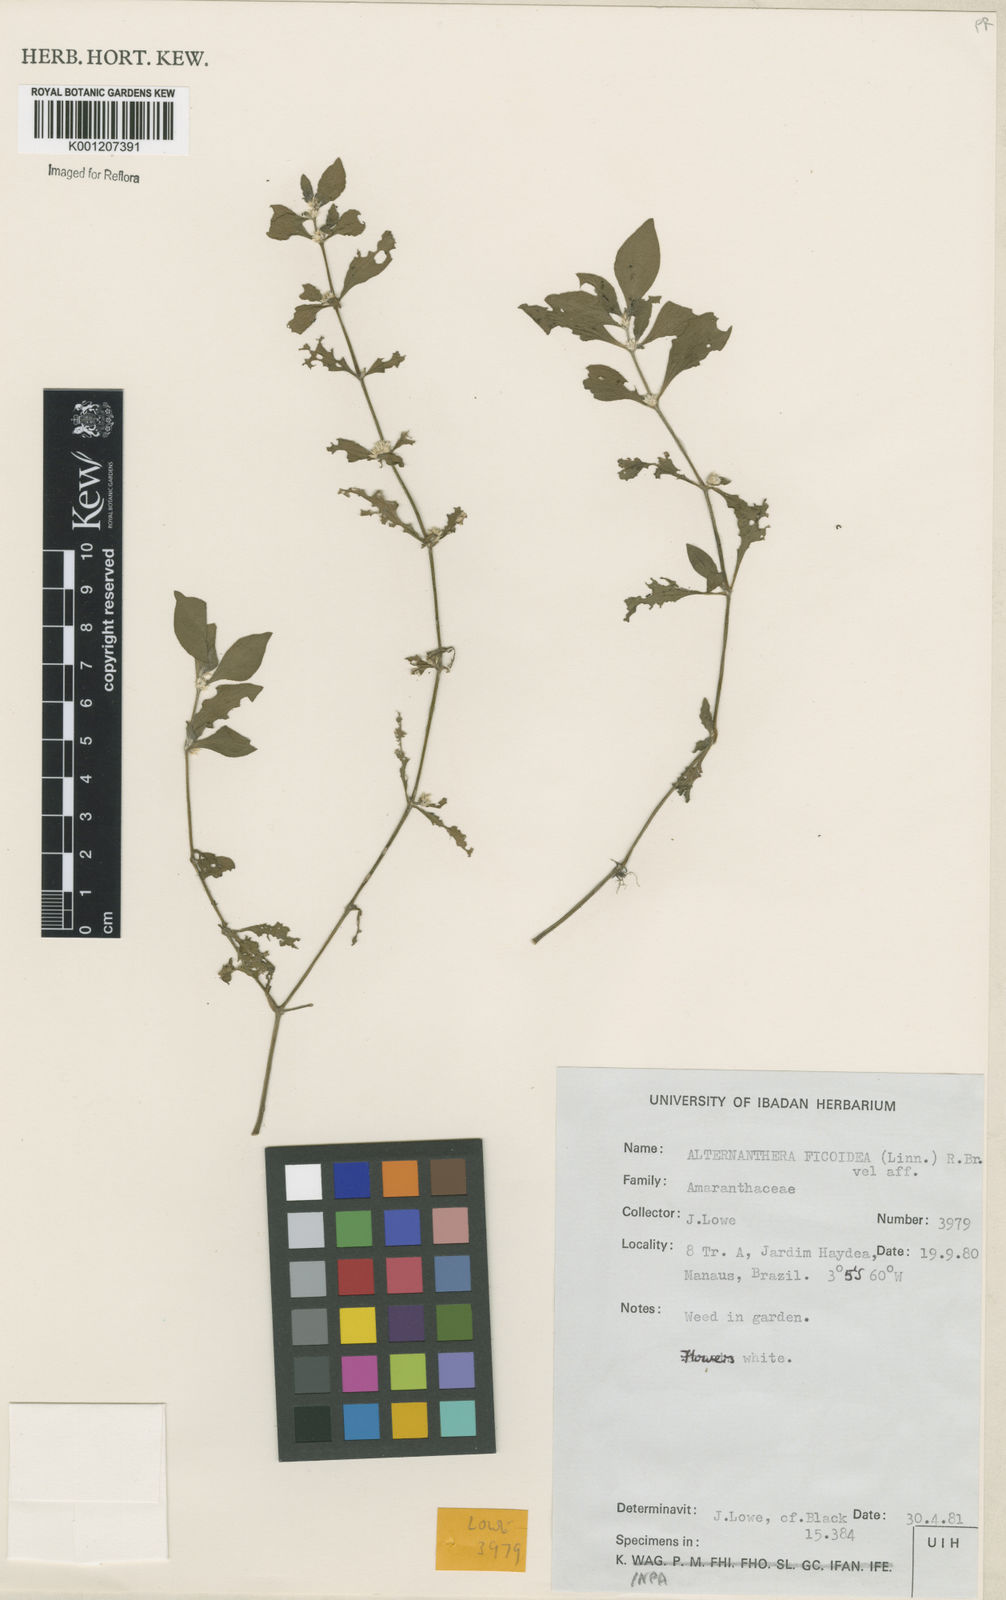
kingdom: Plantae
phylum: Tracheophyta
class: Magnoliopsida
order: Caryophyllales
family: Amaranthaceae
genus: Alternanthera
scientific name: Alternanthera ficoidea
